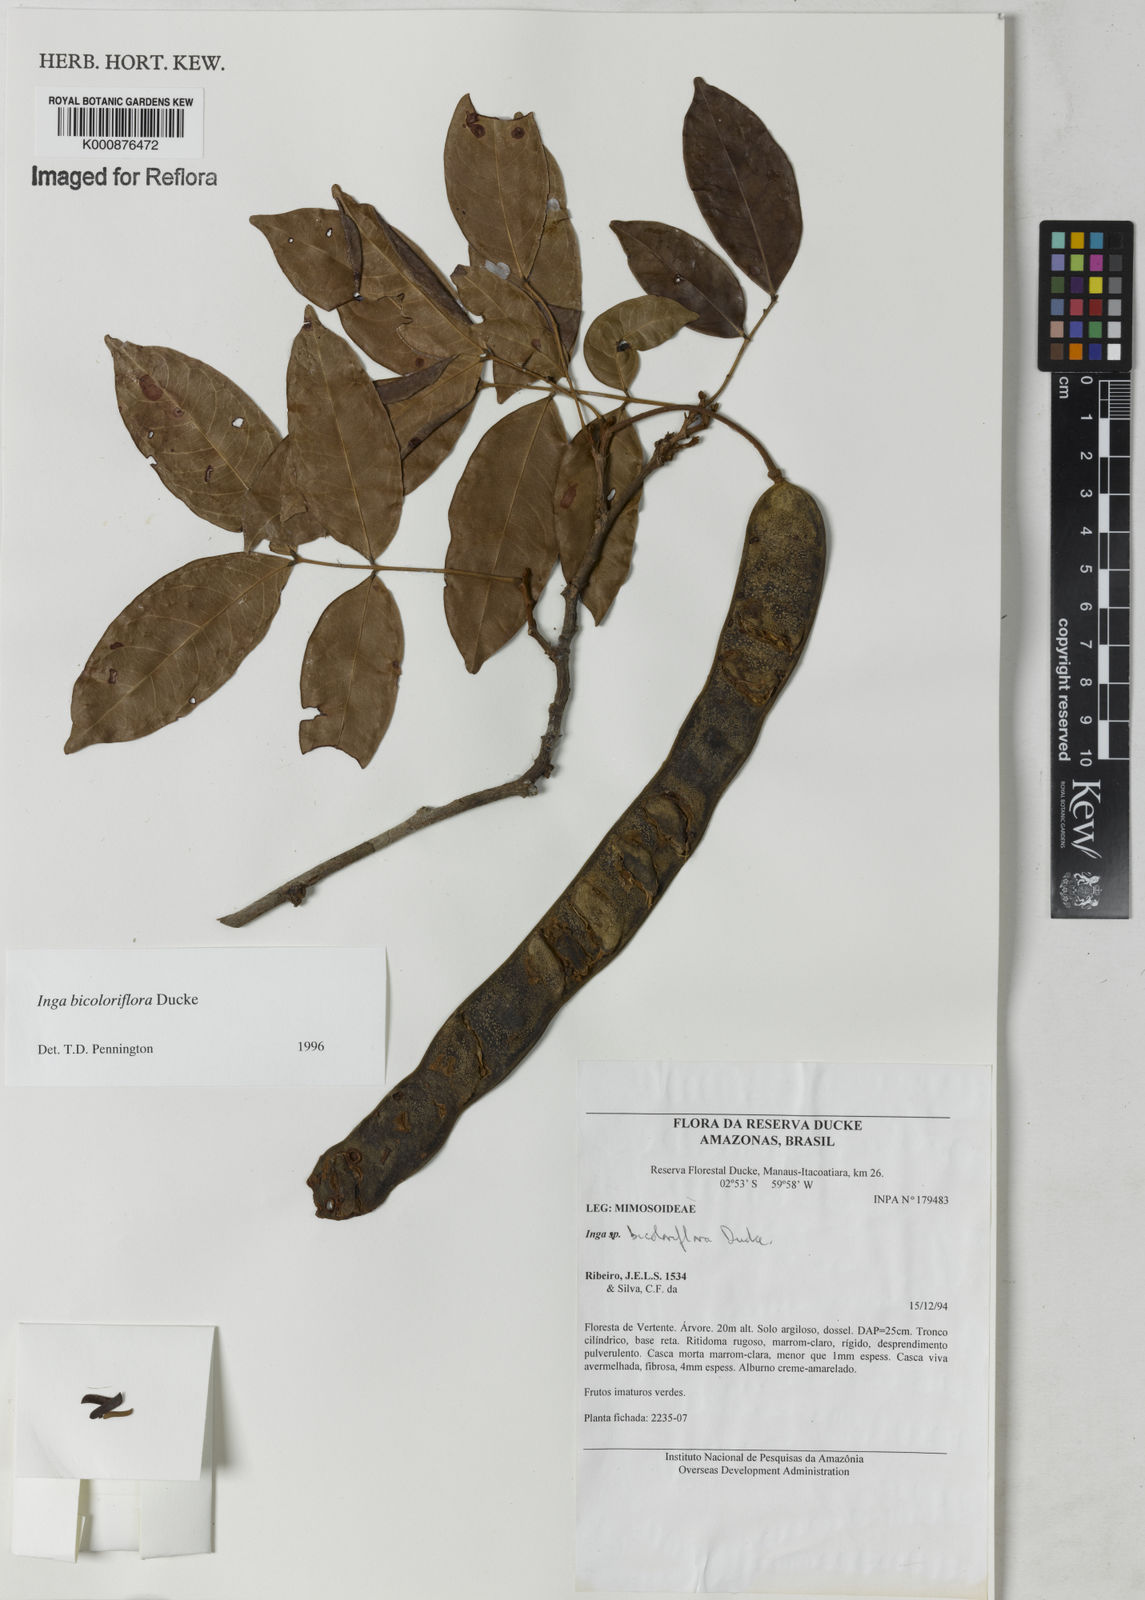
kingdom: Plantae
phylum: Tracheophyta
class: Magnoliopsida
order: Fabales
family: Fabaceae
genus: Inga
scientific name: Inga bicoloriflora
